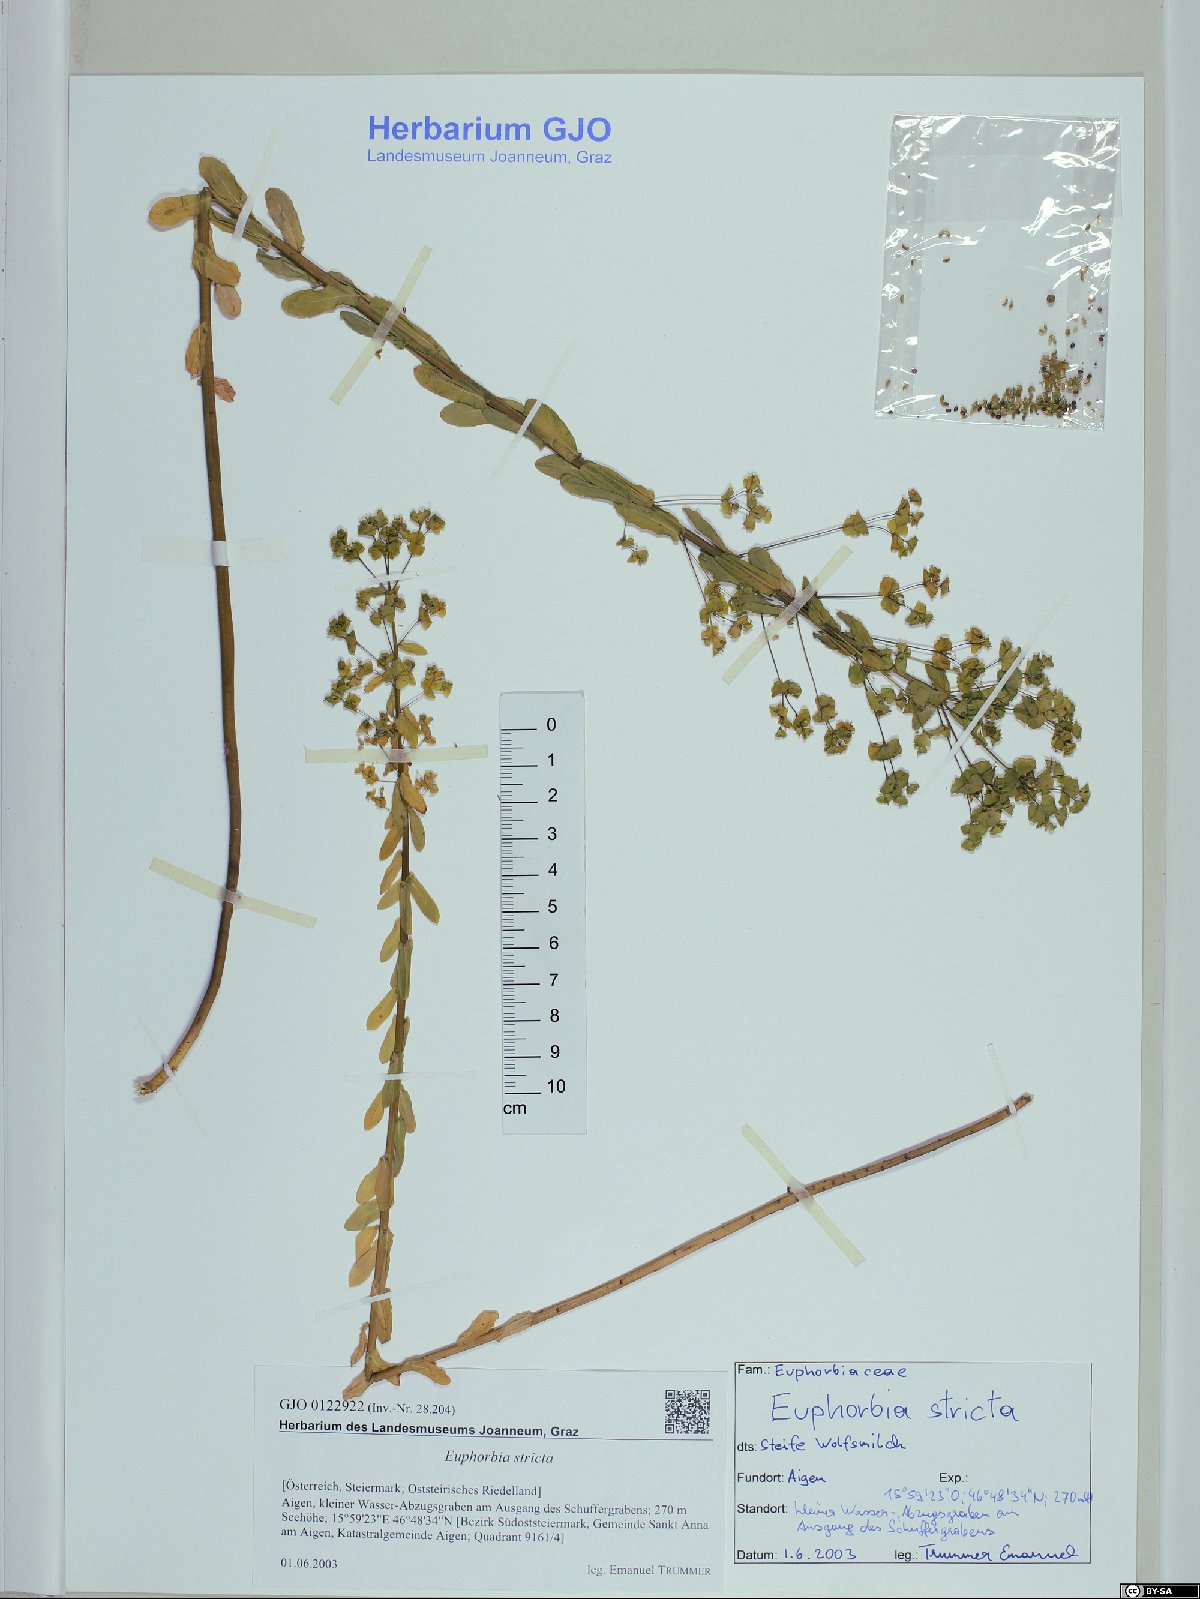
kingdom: Plantae
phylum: Tracheophyta
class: Magnoliopsida
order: Malpighiales
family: Euphorbiaceae
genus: Euphorbia
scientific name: Euphorbia stricta
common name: Upright spurge
